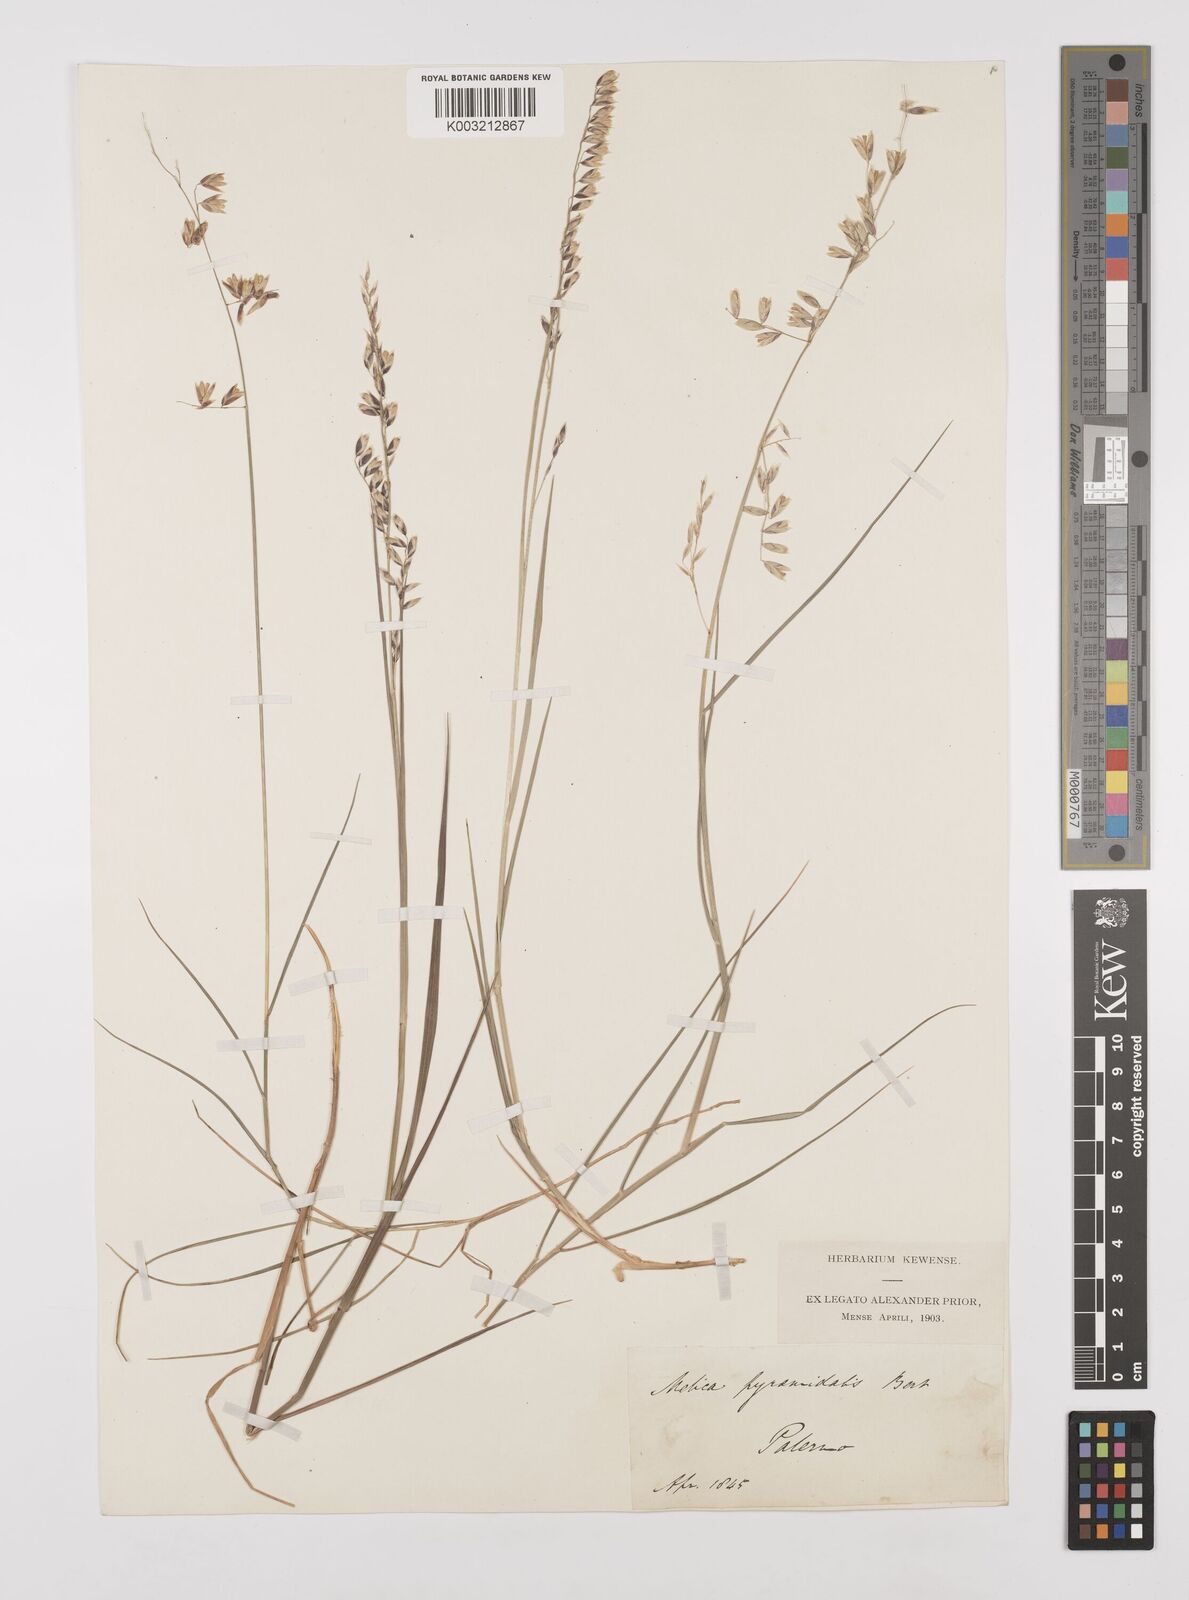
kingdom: Plantae
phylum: Tracheophyta
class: Liliopsida
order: Poales
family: Poaceae
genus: Melica
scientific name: Melica minuta
